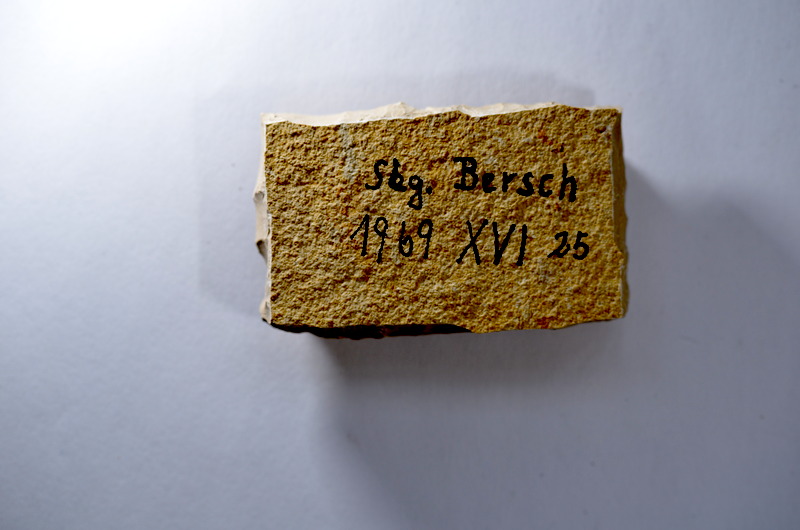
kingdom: Animalia
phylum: Chordata
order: Salmoniformes
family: Orthogonikleithridae
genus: Leptolepides
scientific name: Leptolepides
